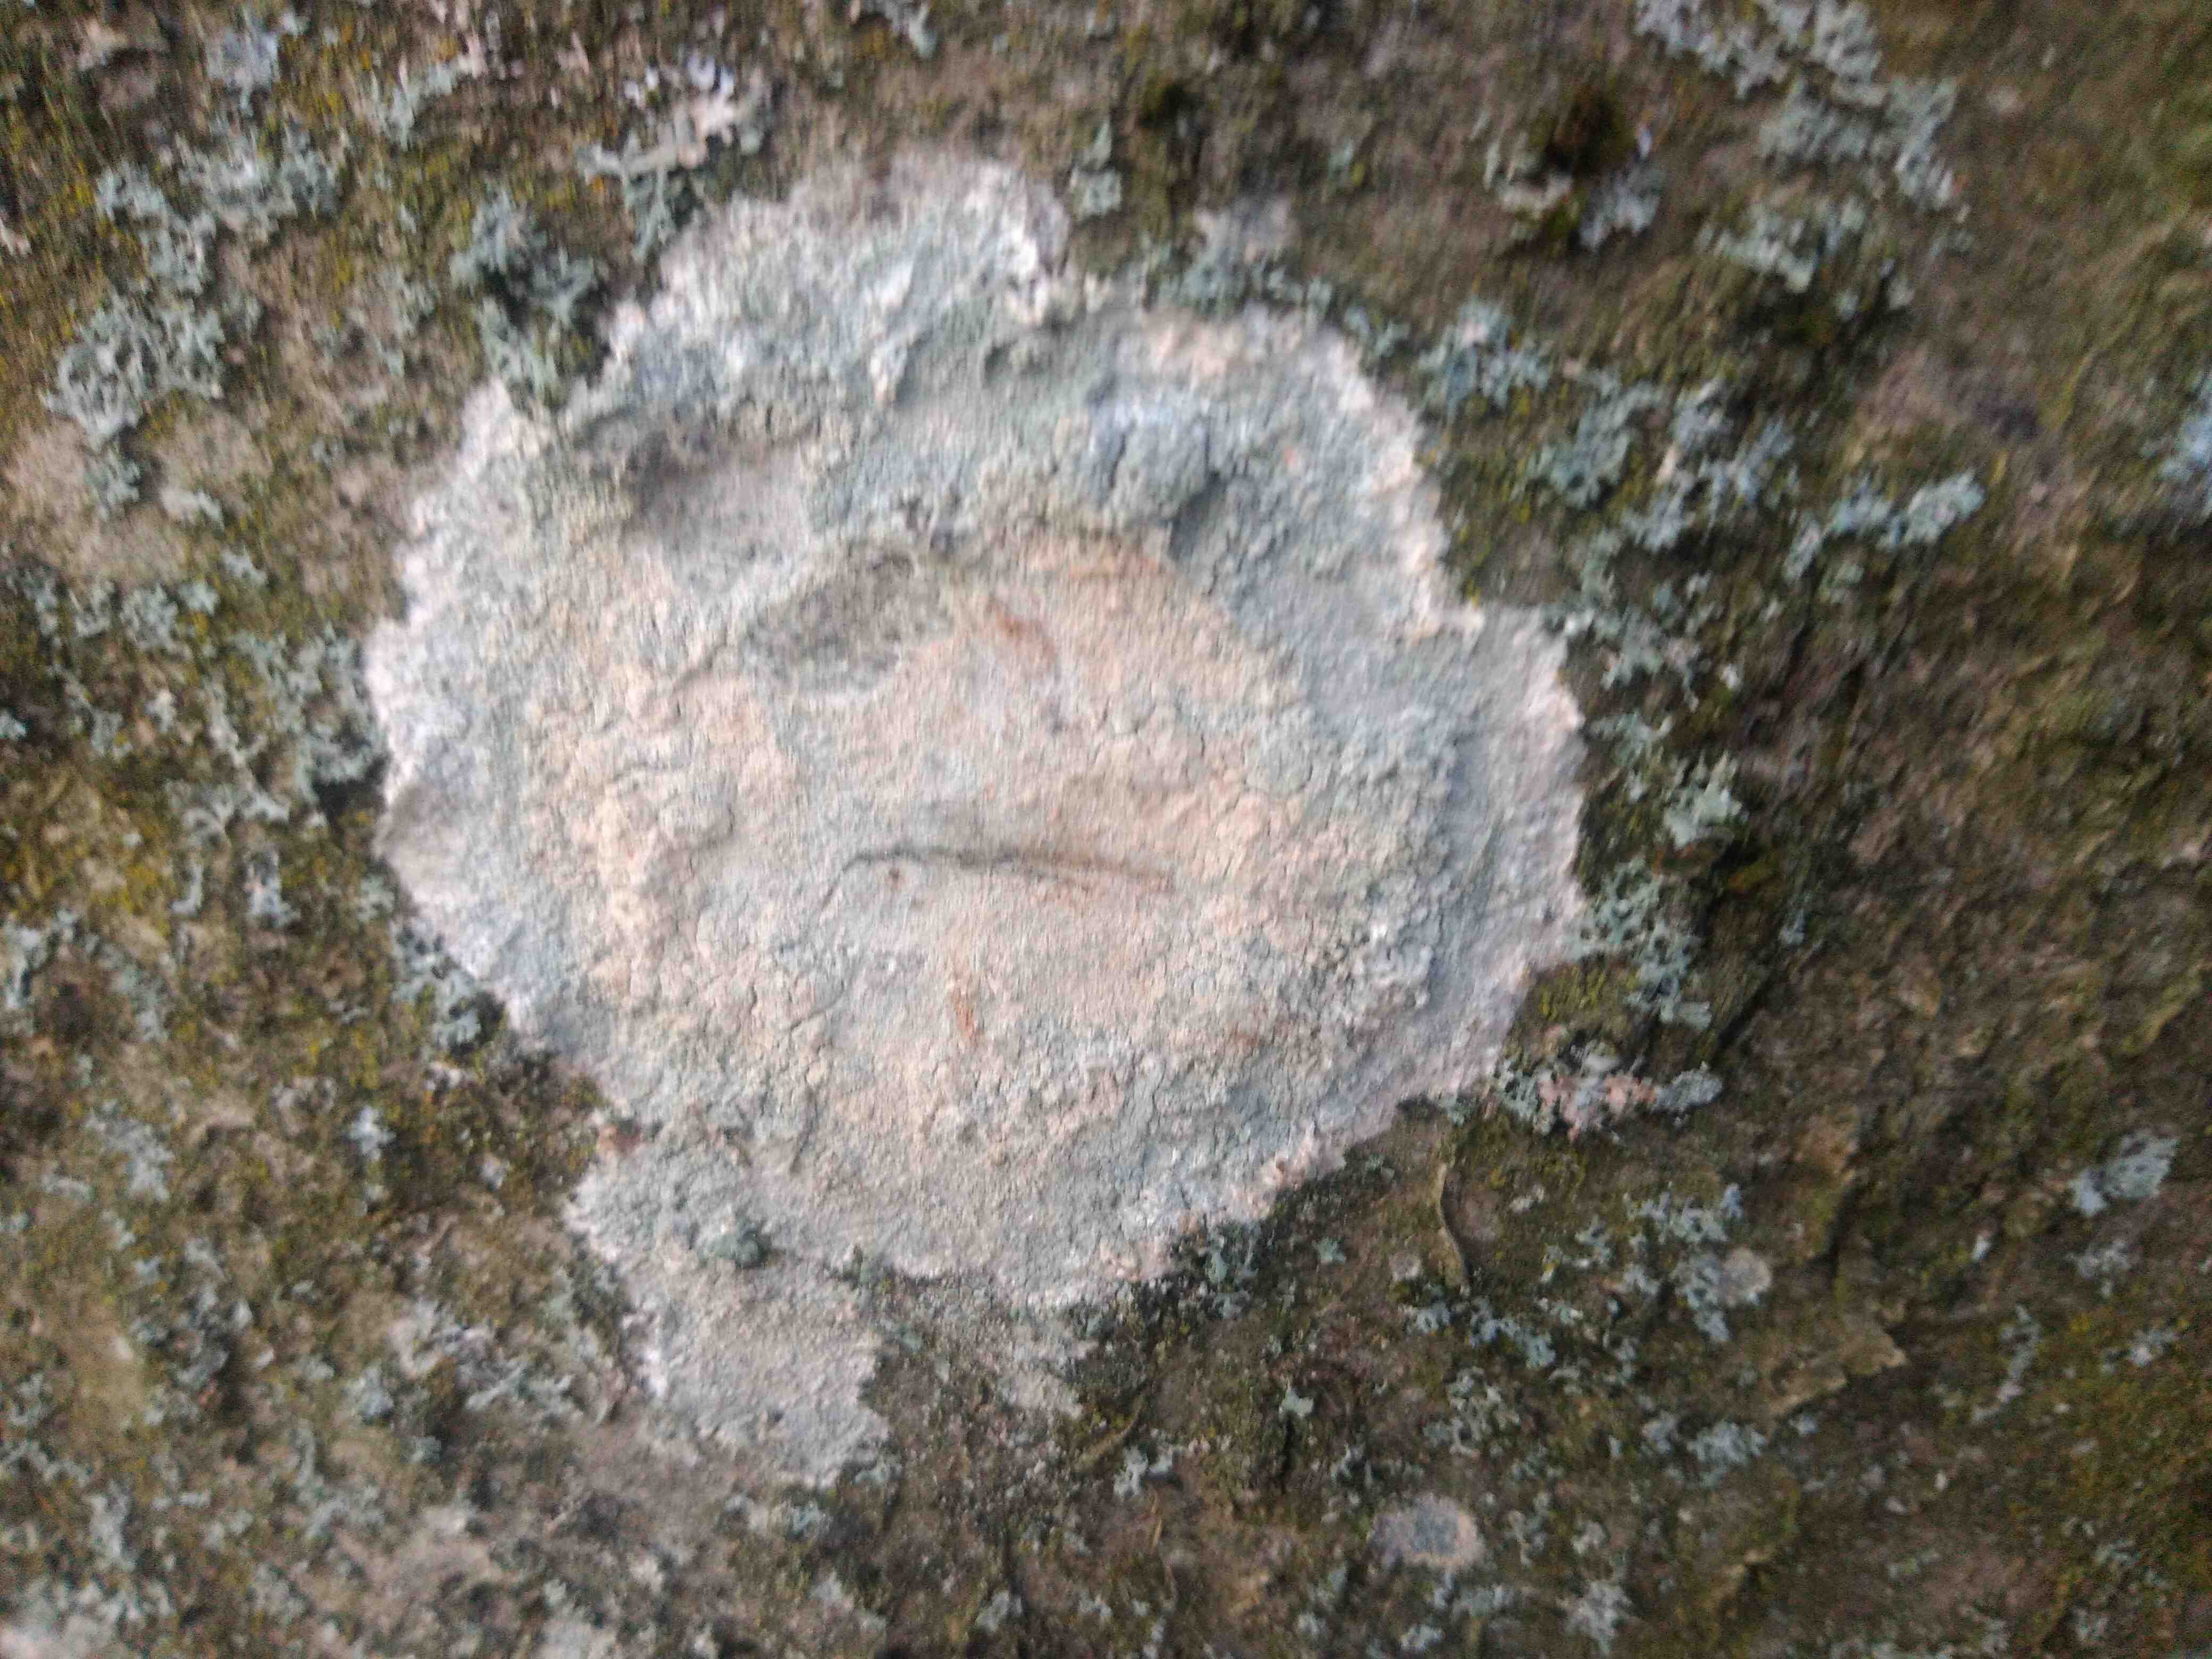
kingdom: Fungi
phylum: Ascomycota
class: Lecanoromycetes
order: Ostropales
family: Phlyctidaceae
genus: Phlyctis
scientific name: Phlyctis argena
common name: almindelig sølvlav
